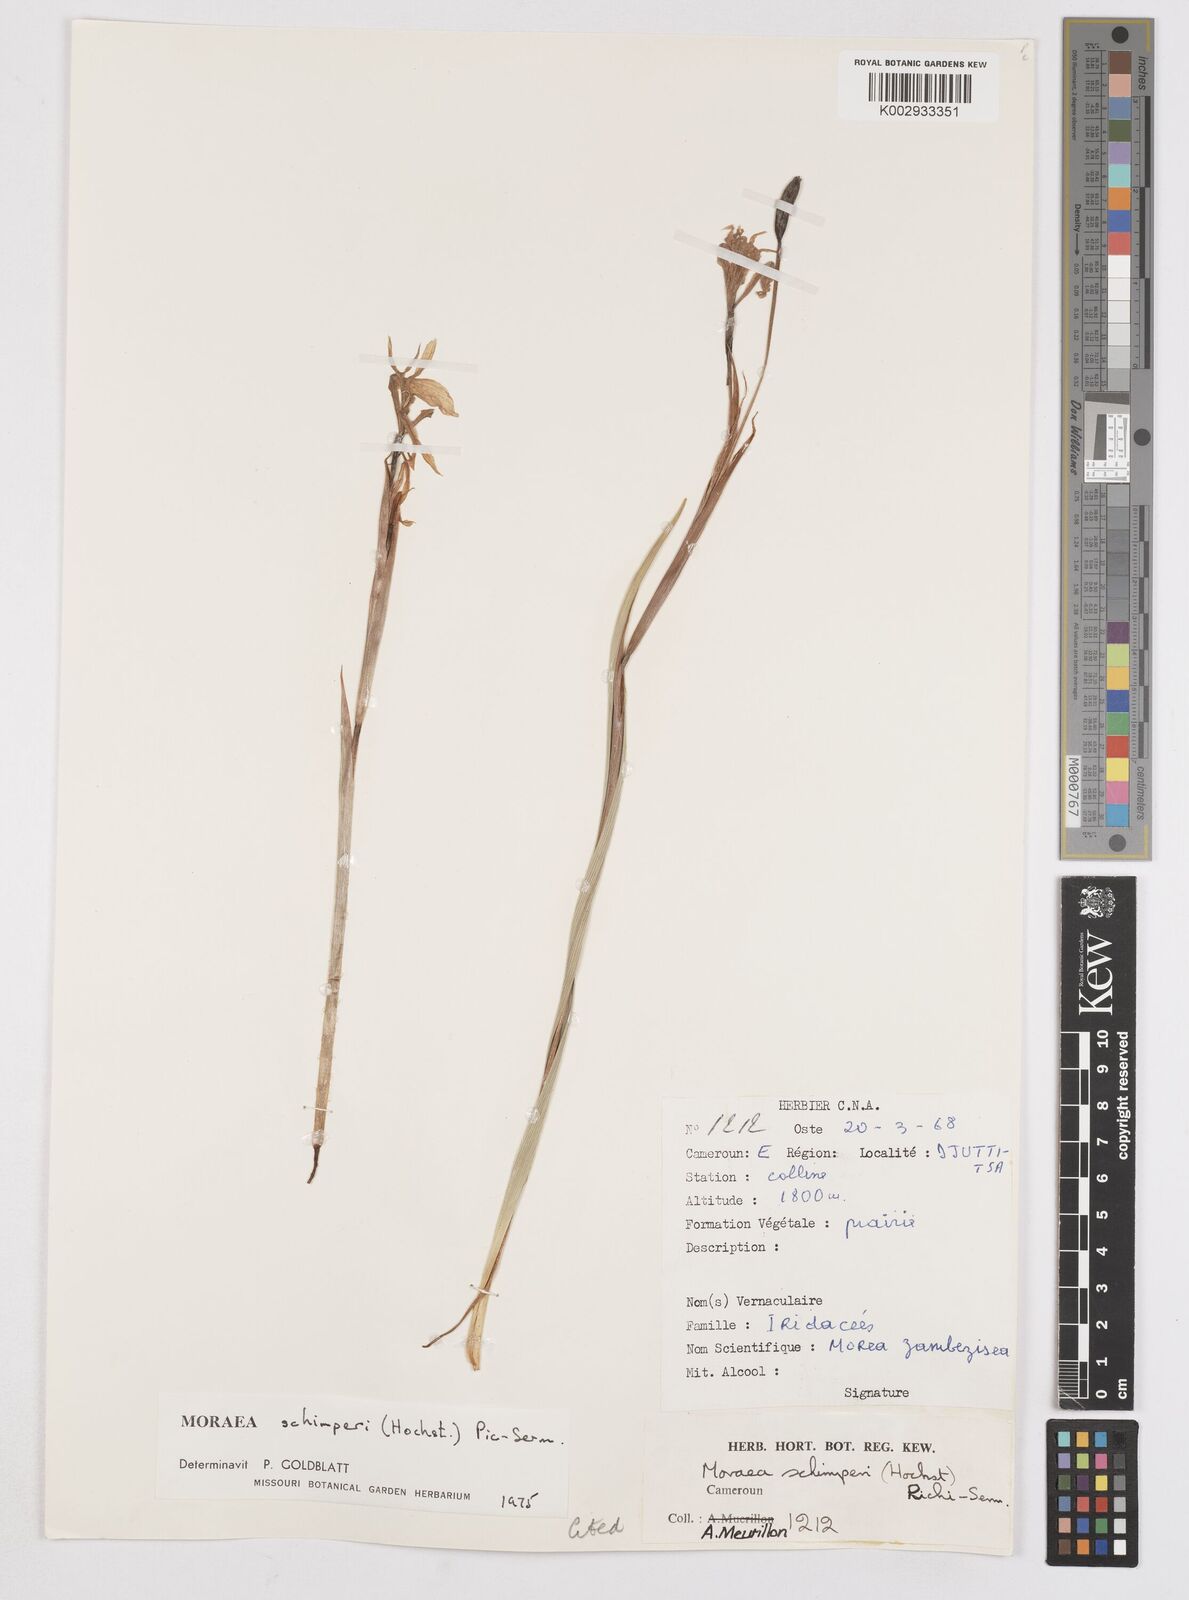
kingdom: Plantae
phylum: Tracheophyta
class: Liliopsida
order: Asparagales
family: Iridaceae
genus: Moraea
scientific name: Moraea schimperi
